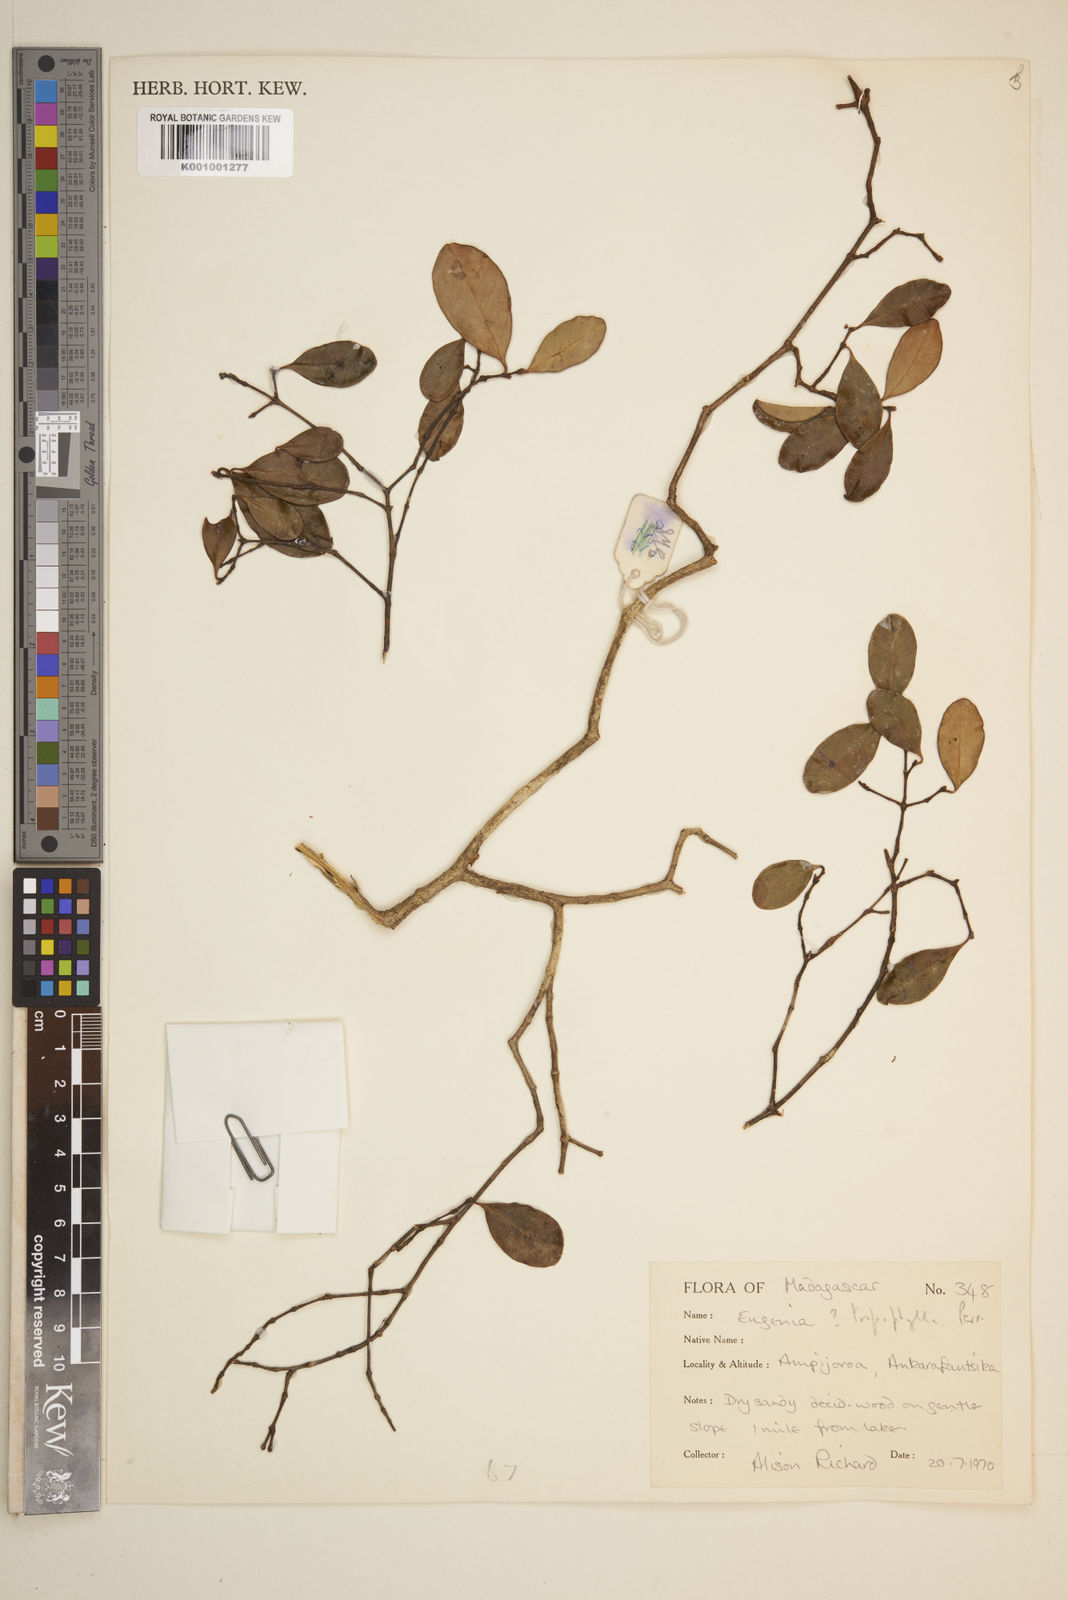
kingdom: Plantae
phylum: Tracheophyta
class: Magnoliopsida
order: Myrtales
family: Myrtaceae
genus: Eugenia
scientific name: Eugenia tropophylla
